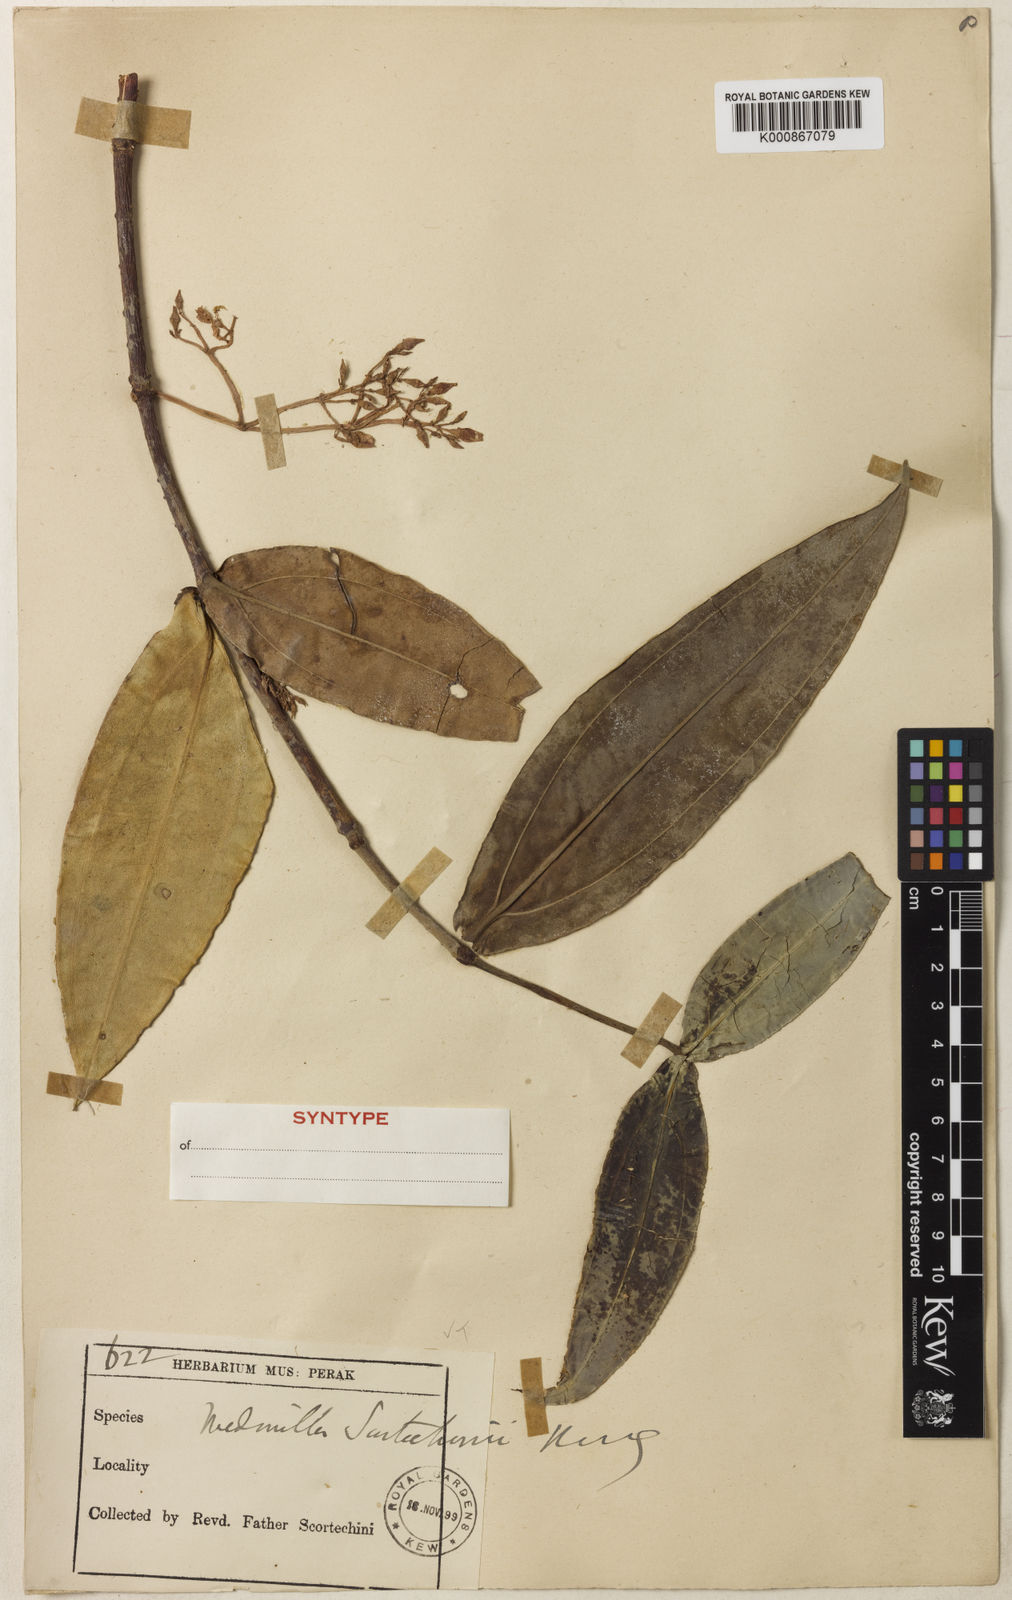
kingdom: Plantae
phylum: Tracheophyta
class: Magnoliopsida
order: Myrtales
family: Melastomataceae
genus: Medinilla
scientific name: Medinilla scortechinii
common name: Coral medinilla
